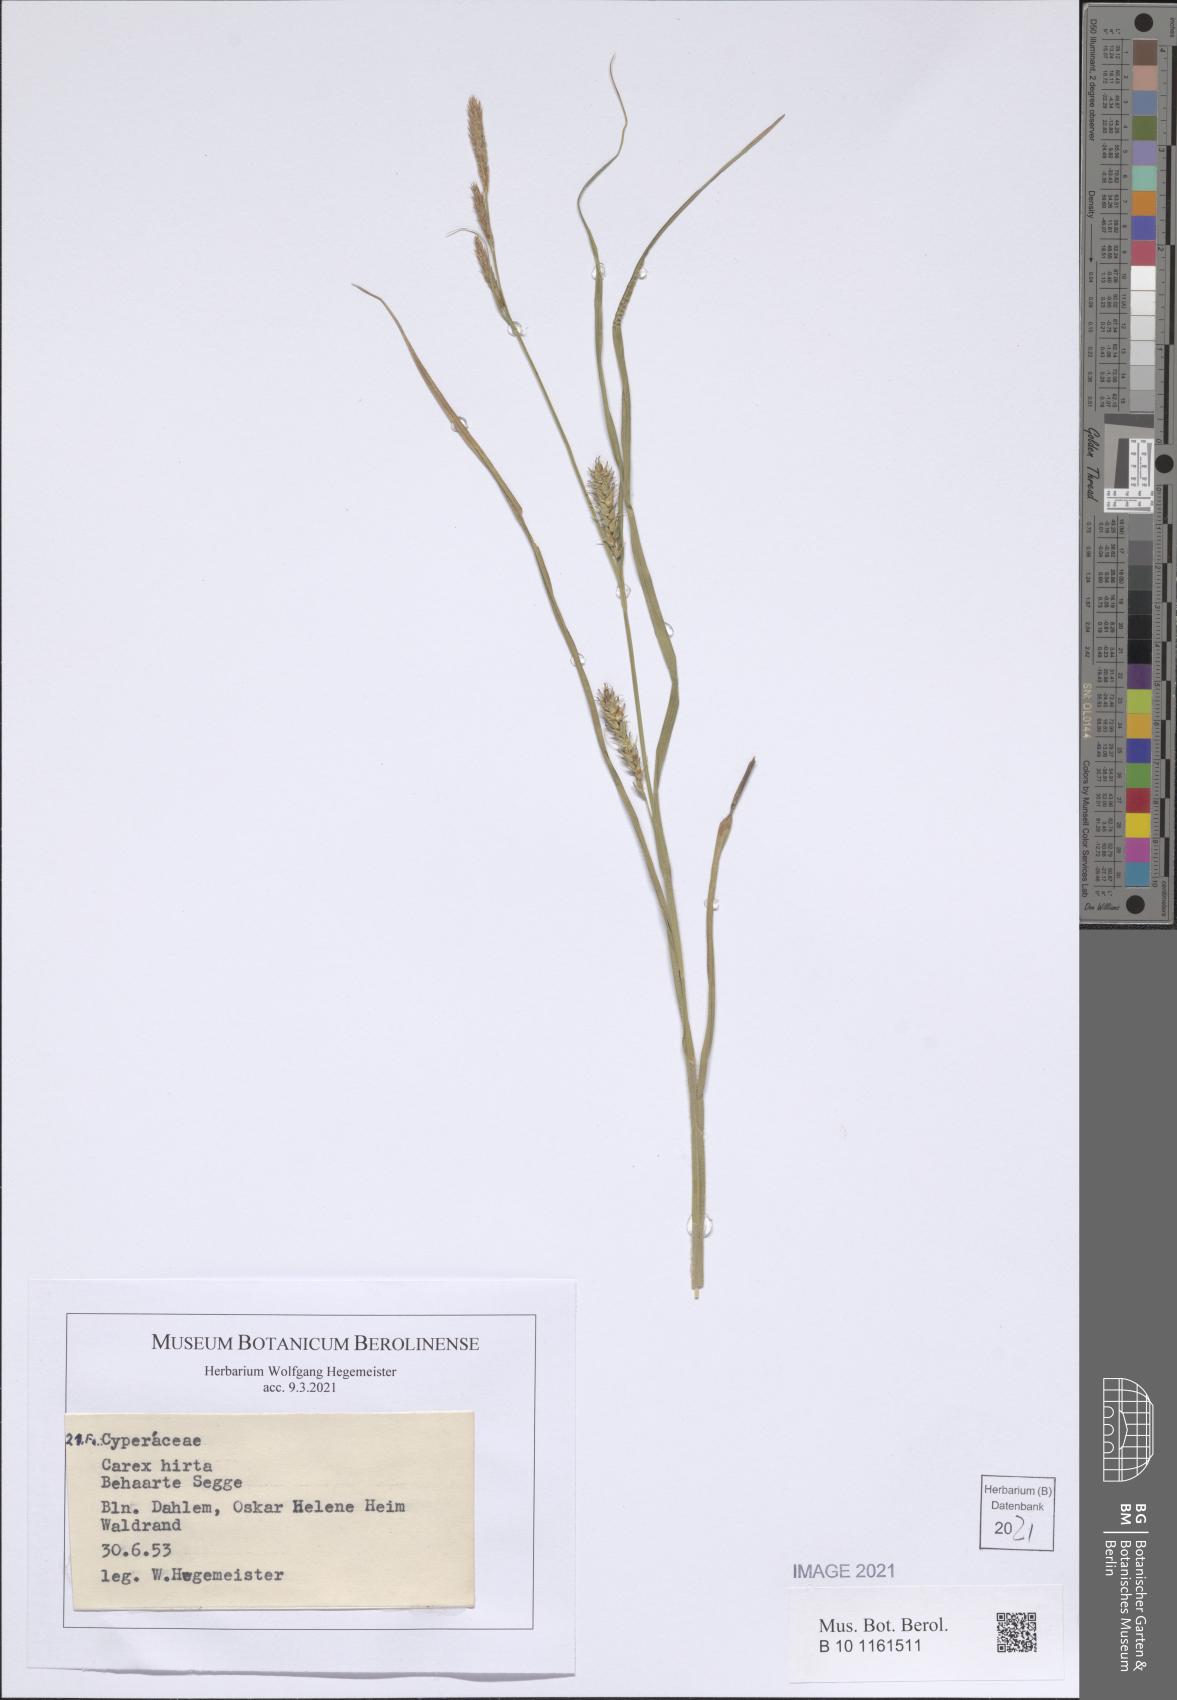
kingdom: Plantae
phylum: Tracheophyta
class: Liliopsida
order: Poales
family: Cyperaceae
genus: Carex
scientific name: Carex hirta
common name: Hairy sedge
